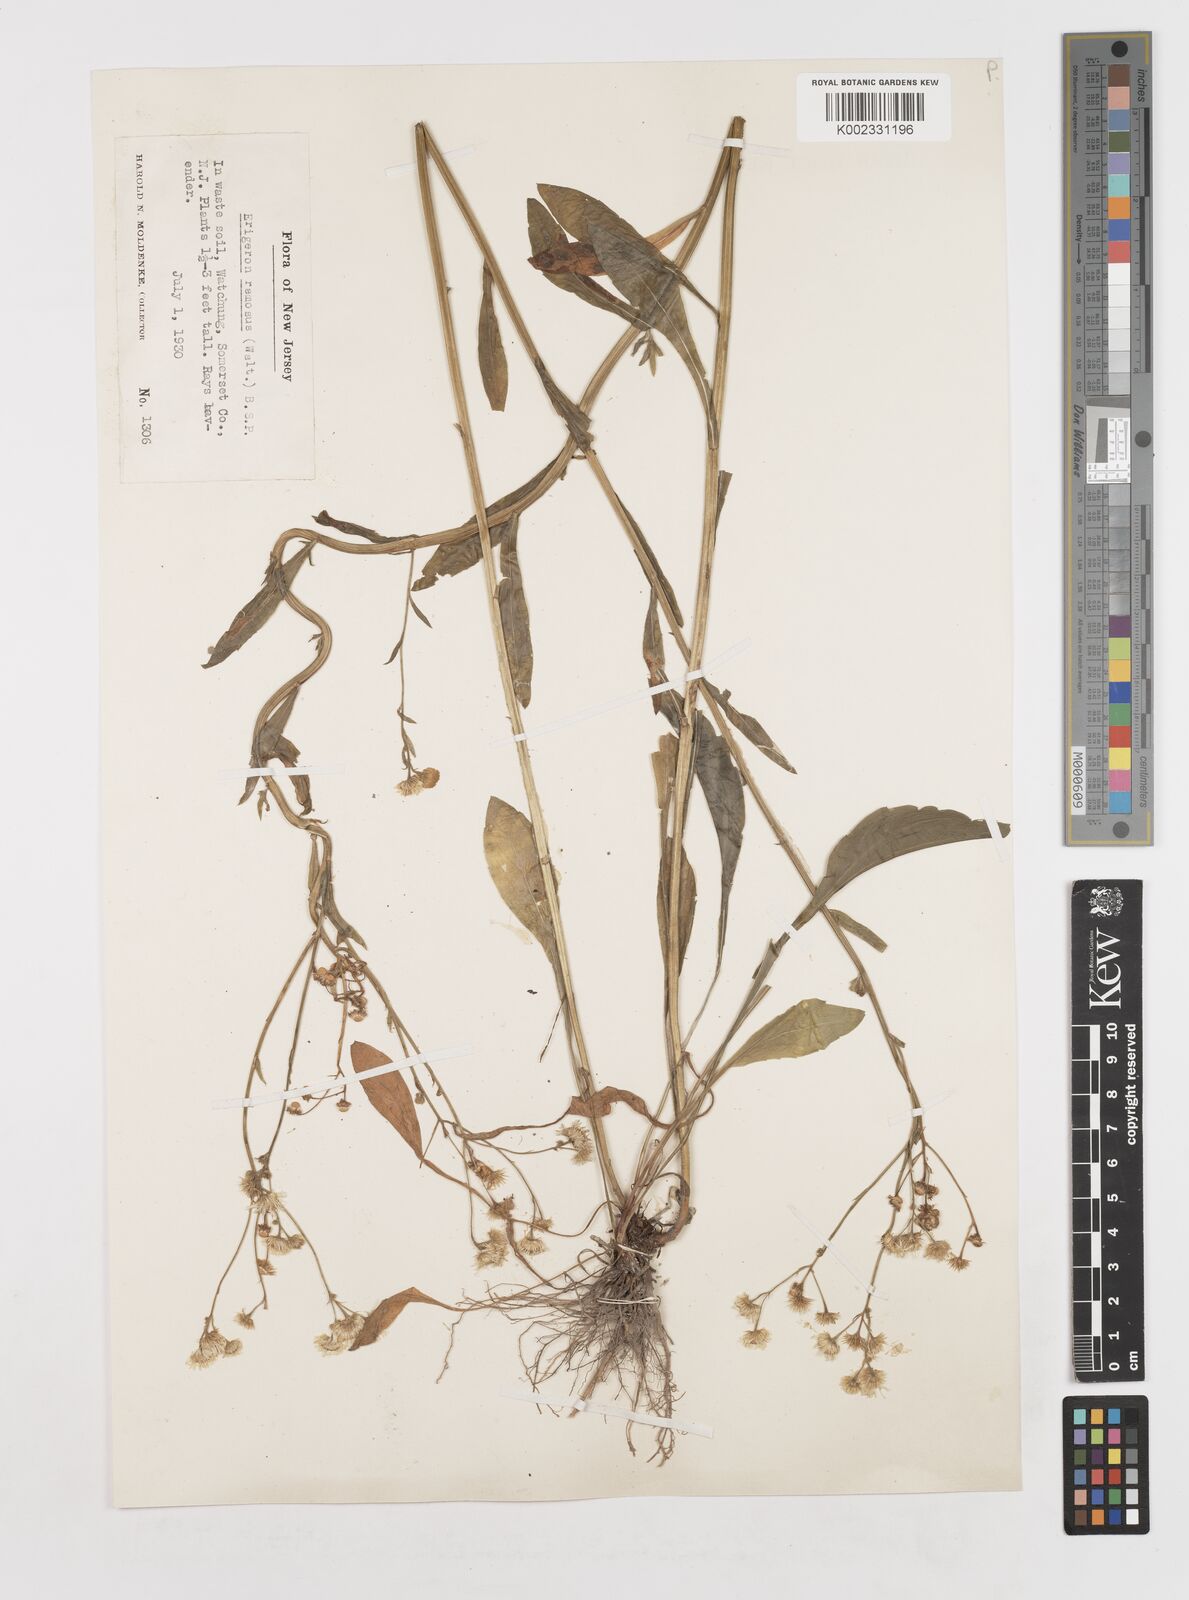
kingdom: Plantae
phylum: Tracheophyta
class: Magnoliopsida
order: Asterales
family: Asteraceae
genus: Erigeron
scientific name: Erigeron strigosus
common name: Common eastern fleabane
